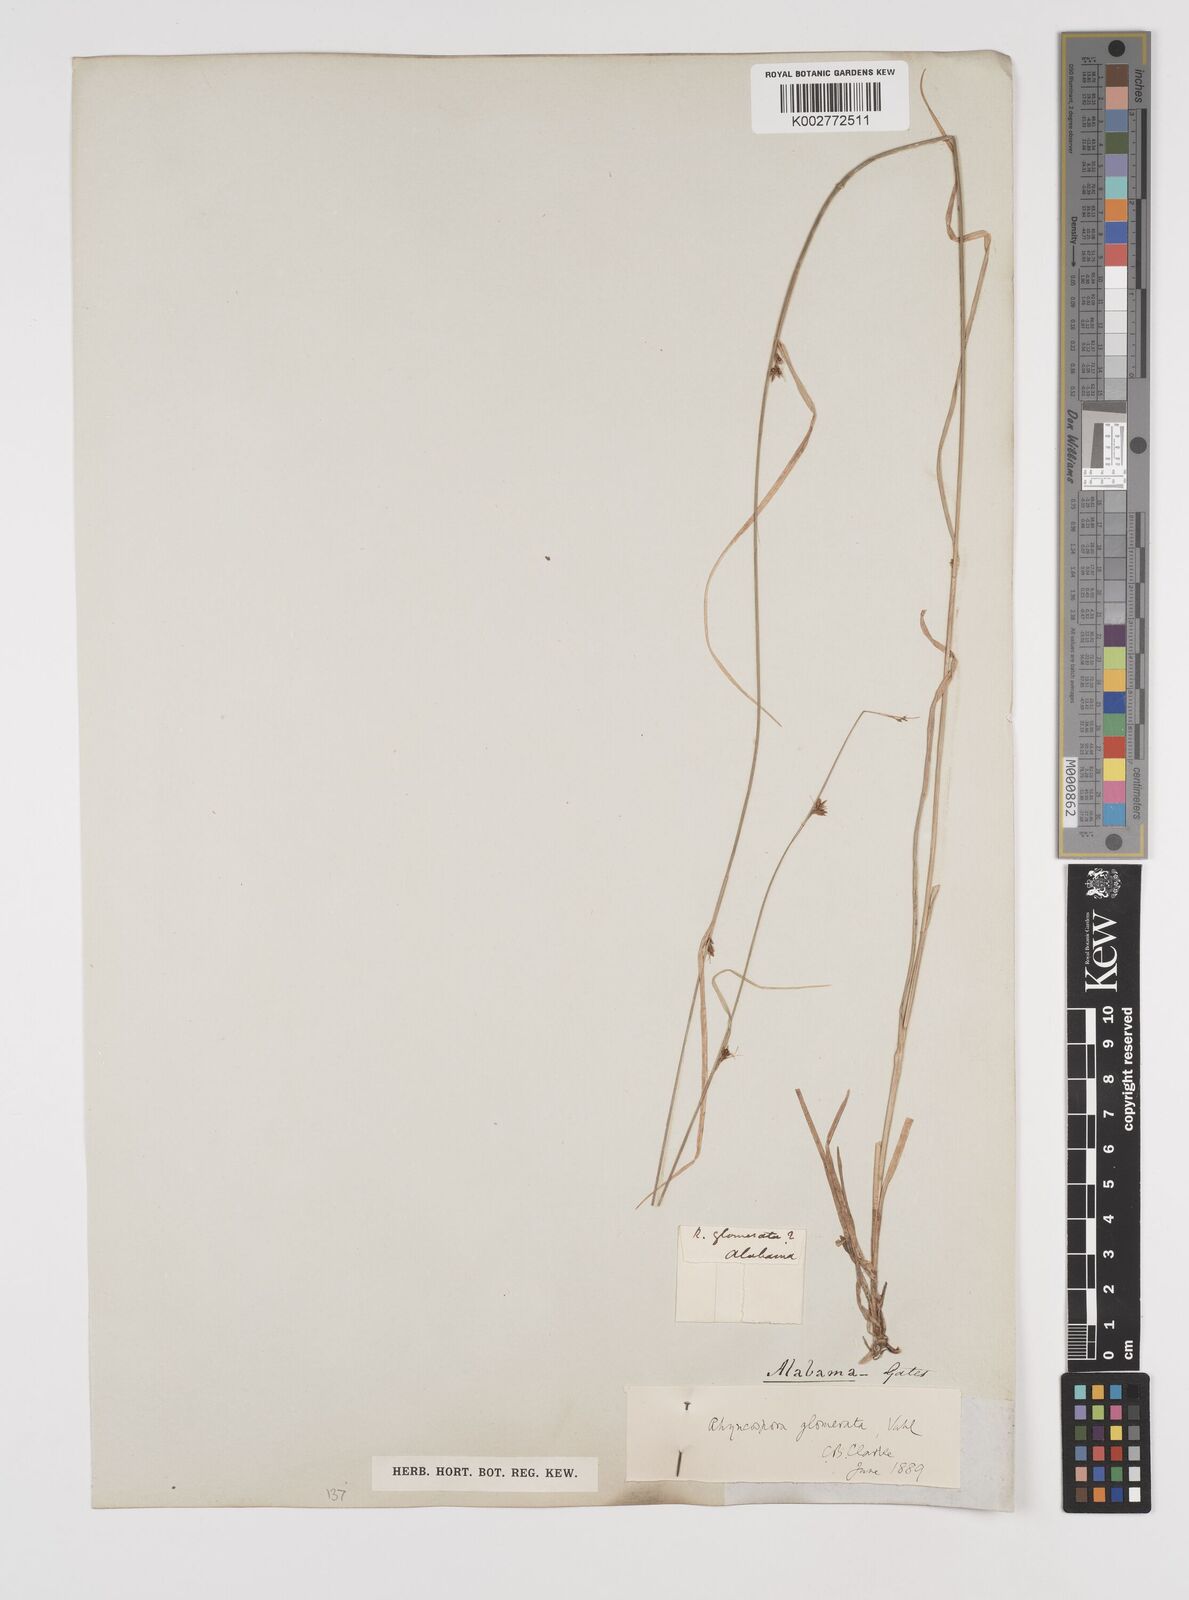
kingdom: Plantae
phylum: Tracheophyta
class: Liliopsida
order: Poales
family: Cyperaceae
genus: Rhynchospora
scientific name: Rhynchospora glomerata
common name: Cluster beak sedge
